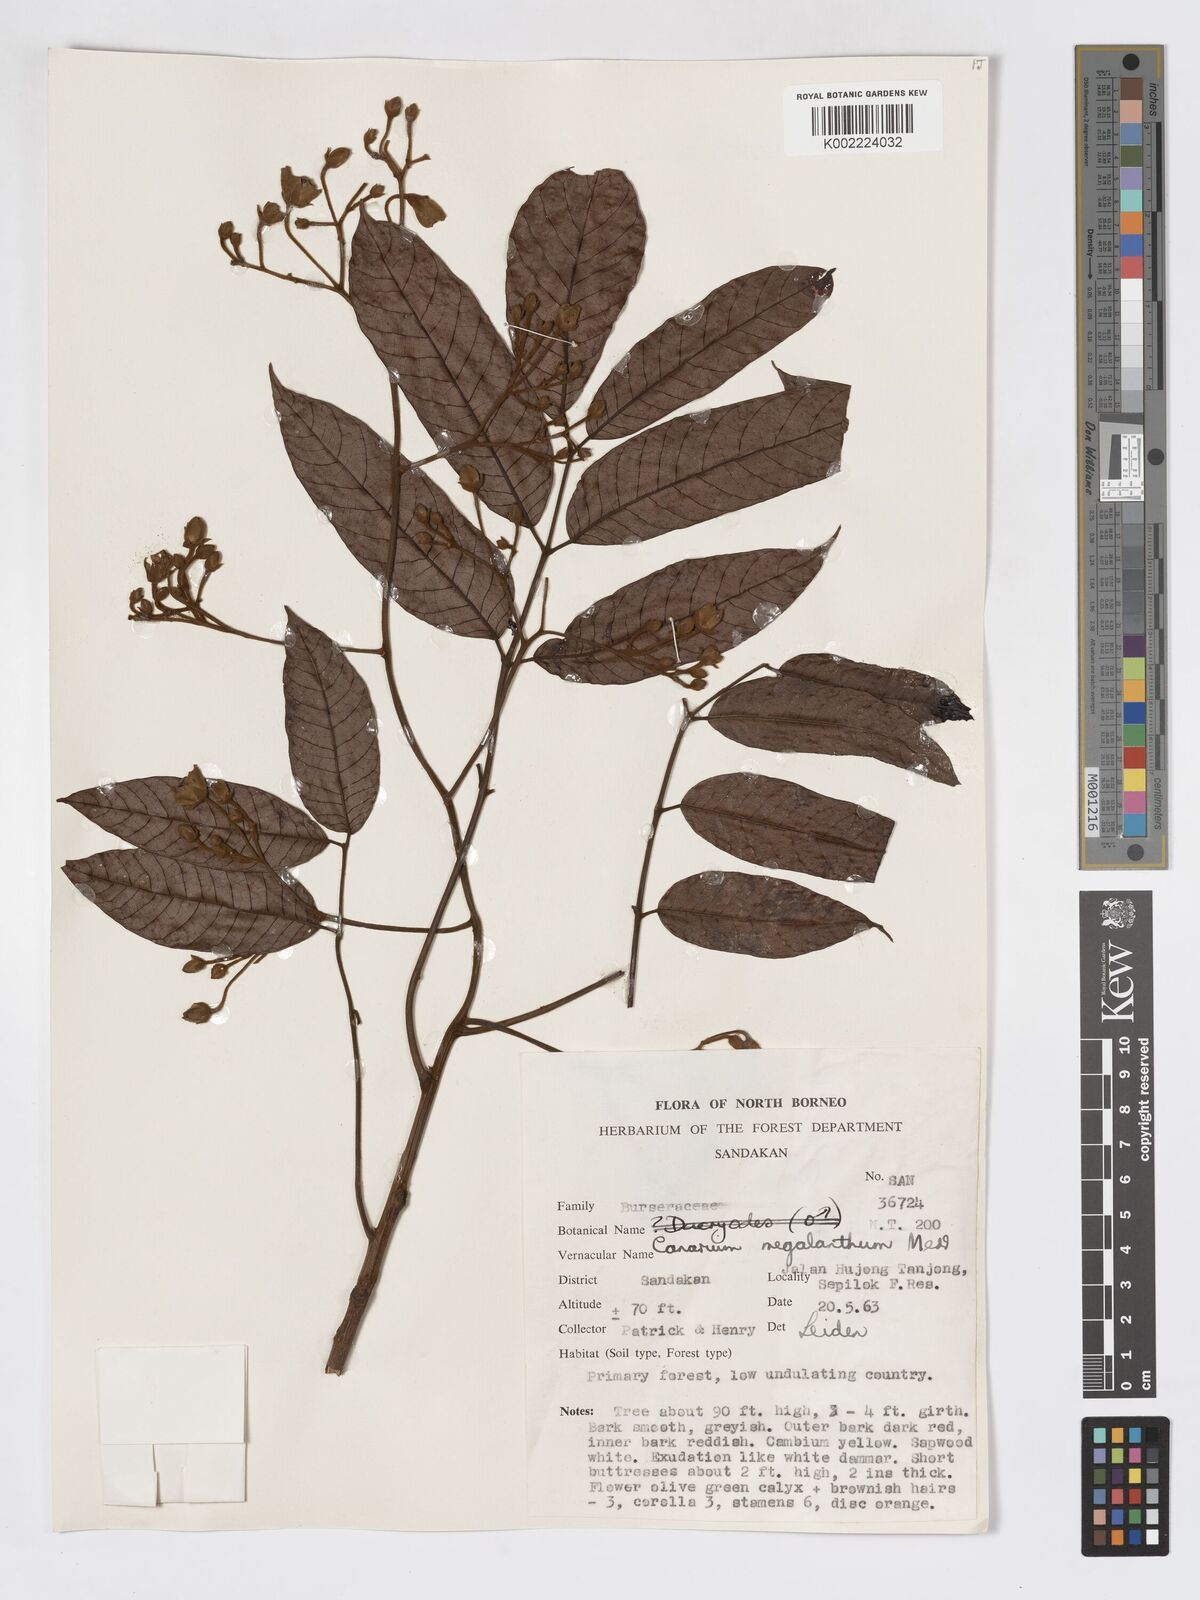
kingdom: Plantae
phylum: Tracheophyta
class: Magnoliopsida
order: Sapindales
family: Burseraceae
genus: Canarium
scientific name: Canarium megalanthum
